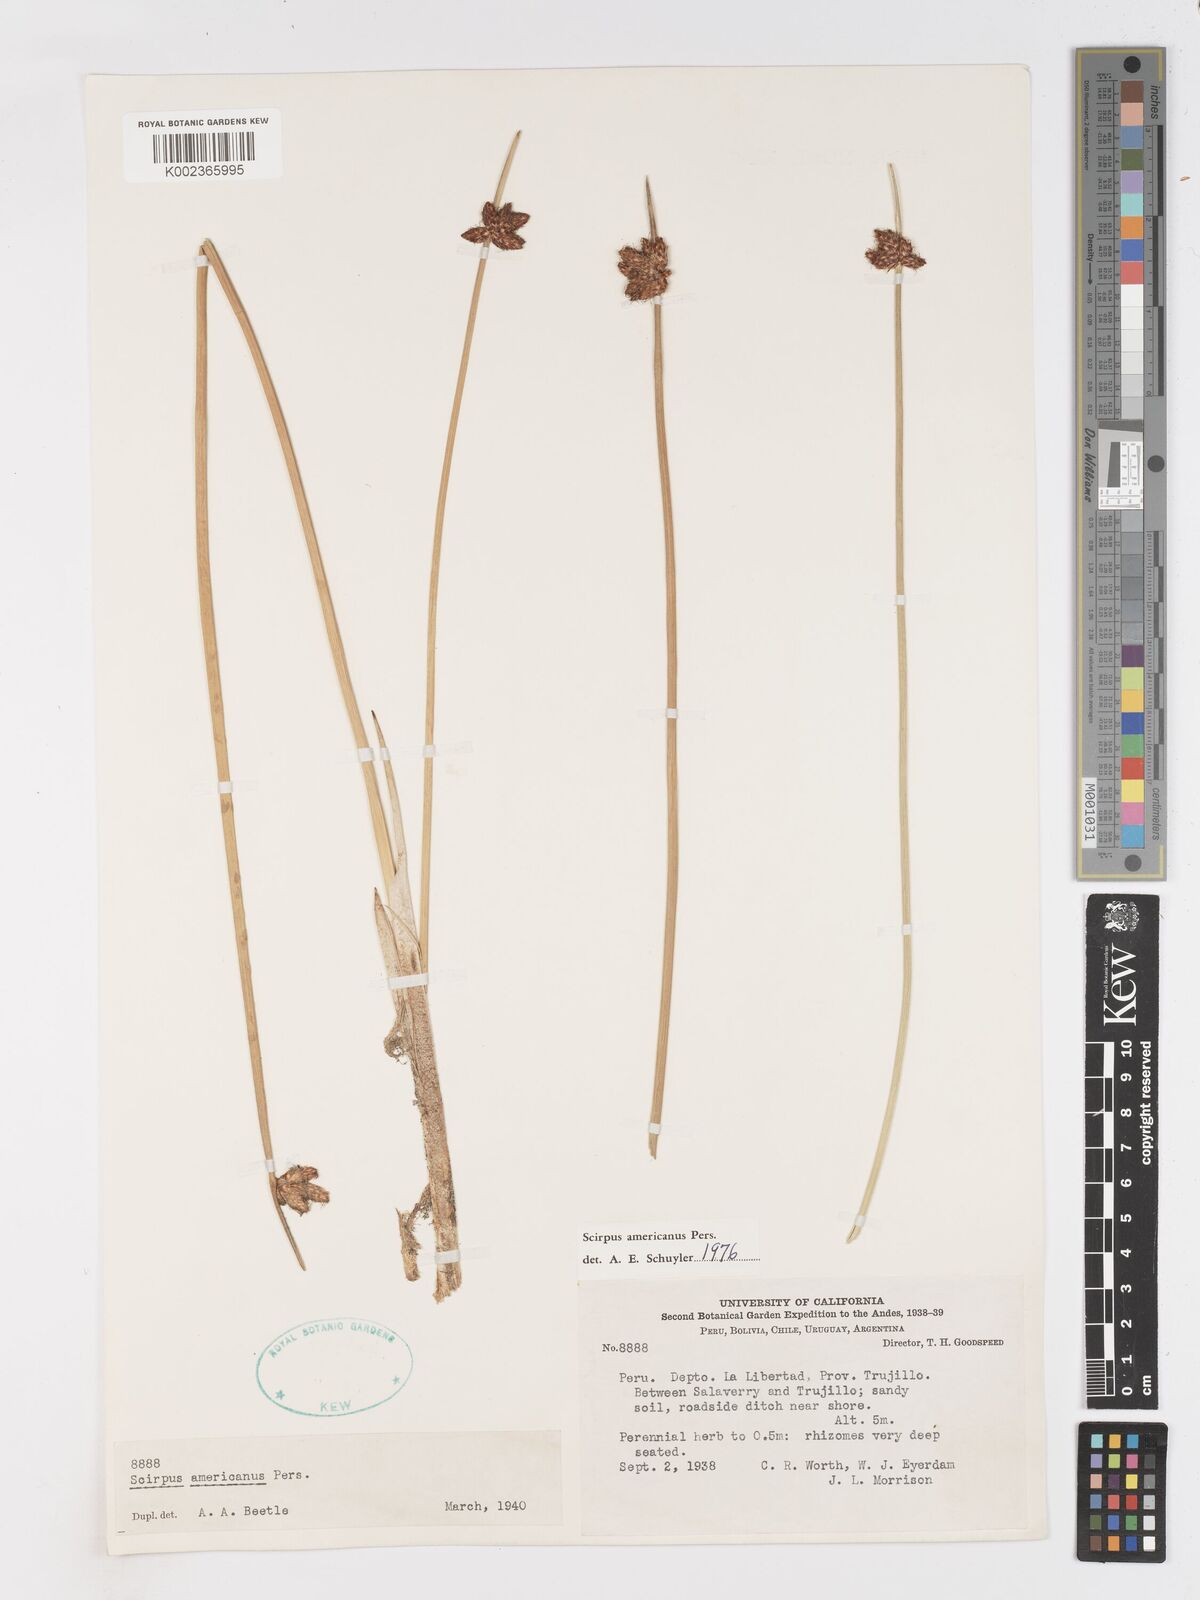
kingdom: Plantae
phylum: Tracheophyta
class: Liliopsida
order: Poales
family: Cyperaceae
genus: Schoenoplectus
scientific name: Schoenoplectus americanus
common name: American three-square bulrush
